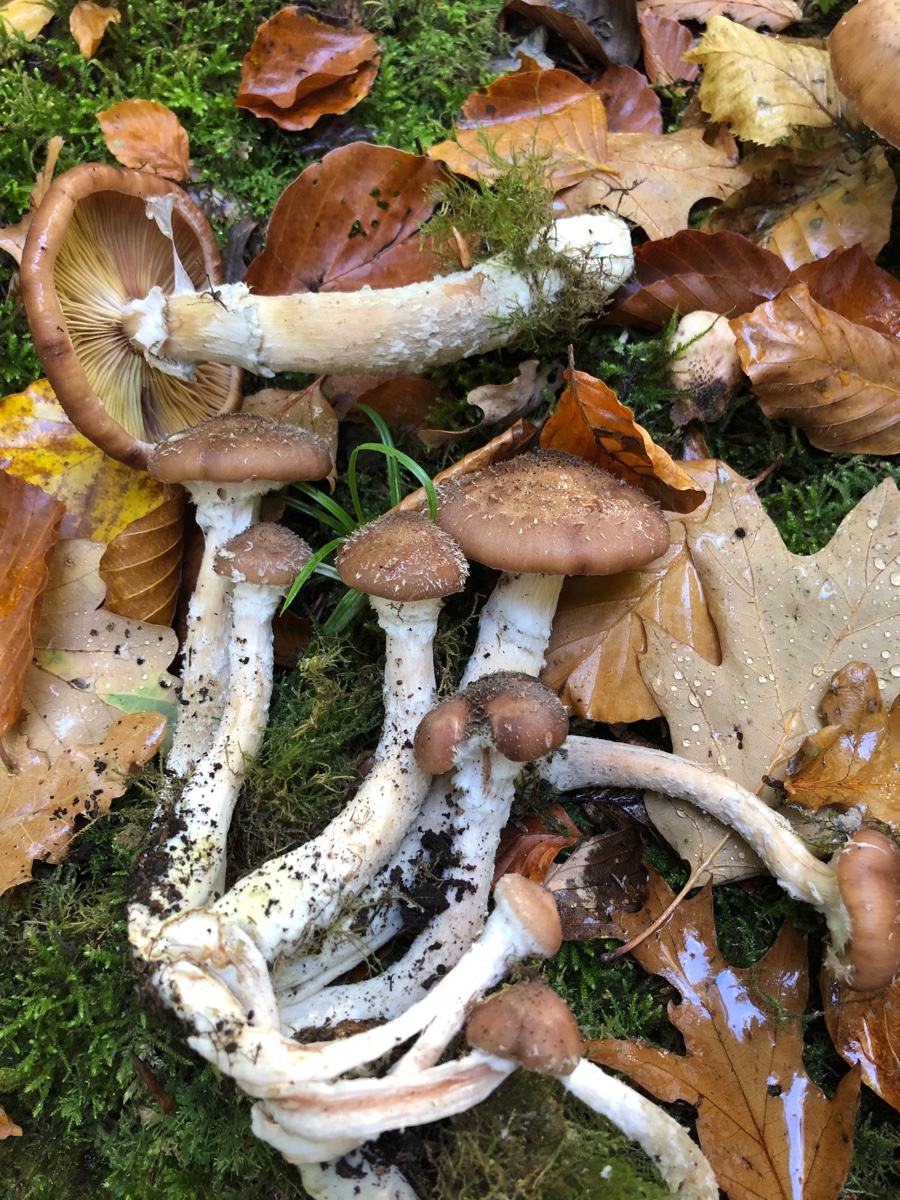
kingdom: Fungi
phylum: Basidiomycota
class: Agaricomycetes
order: Agaricales
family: Physalacriaceae
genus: Armillaria
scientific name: Armillaria
